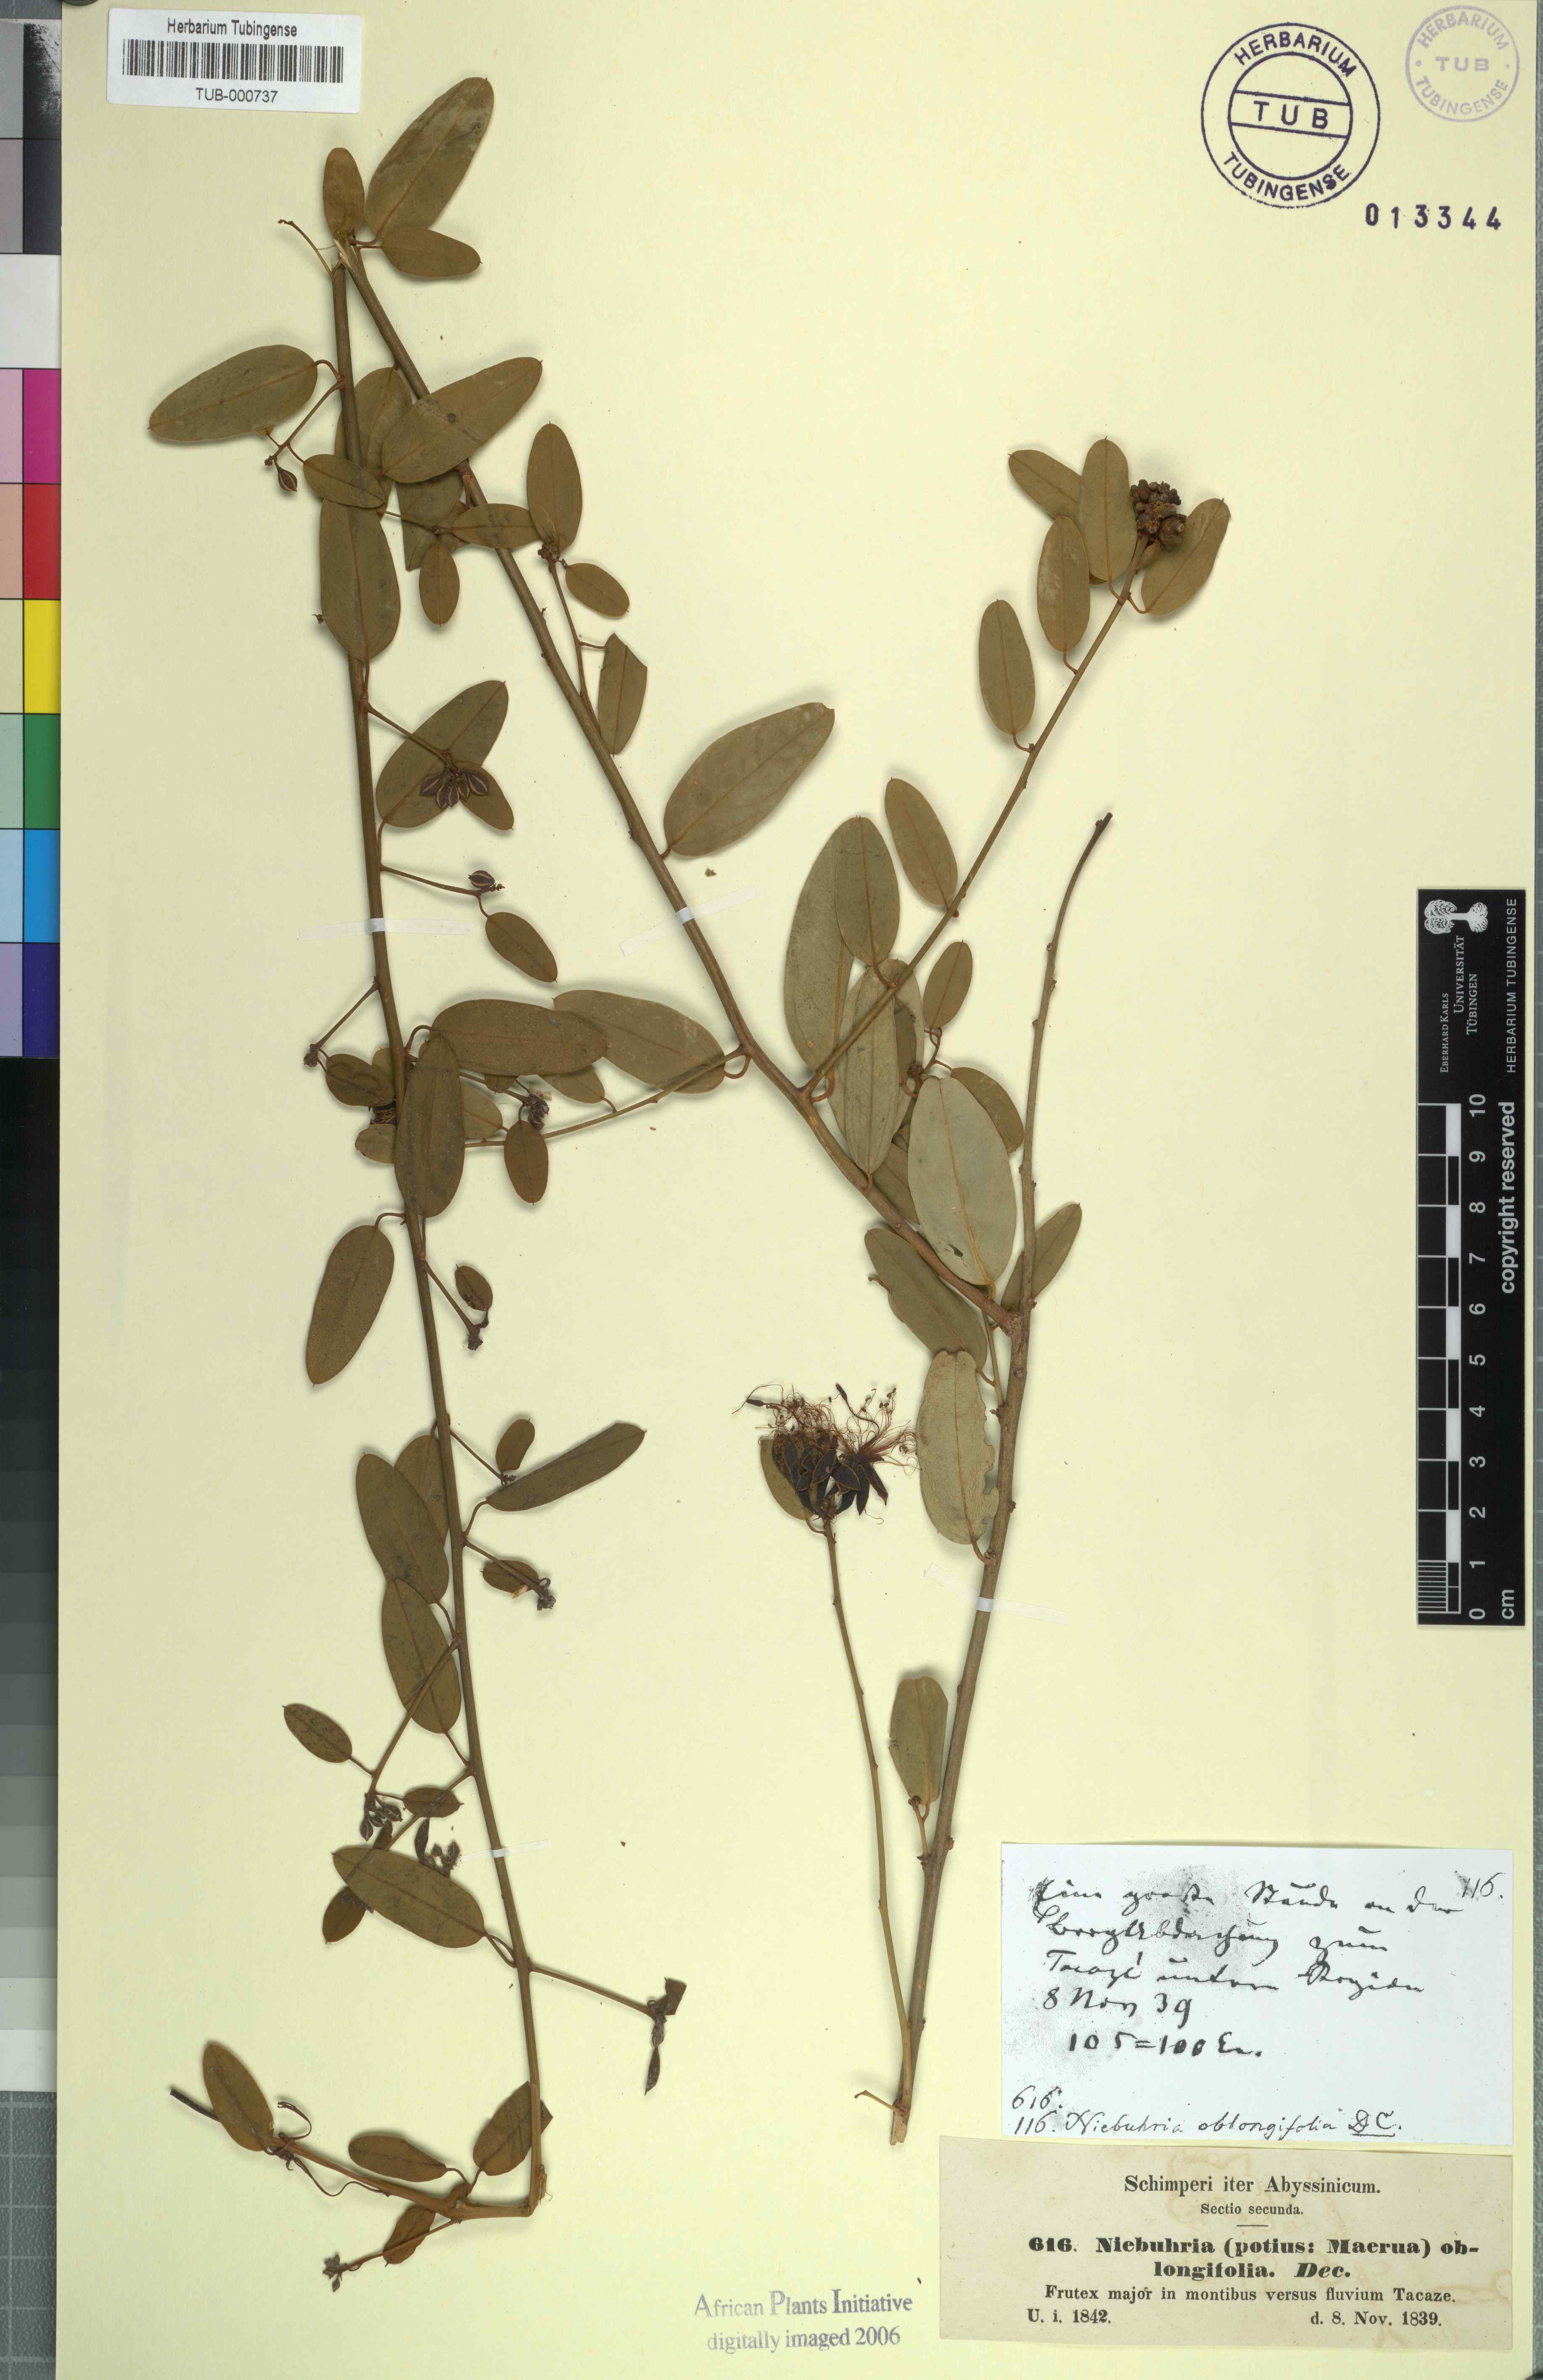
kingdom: Plantae
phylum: Tracheophyta
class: Magnoliopsida
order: Brassicales
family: Capparaceae
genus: Maerua
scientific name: Maerua oblongifolia
